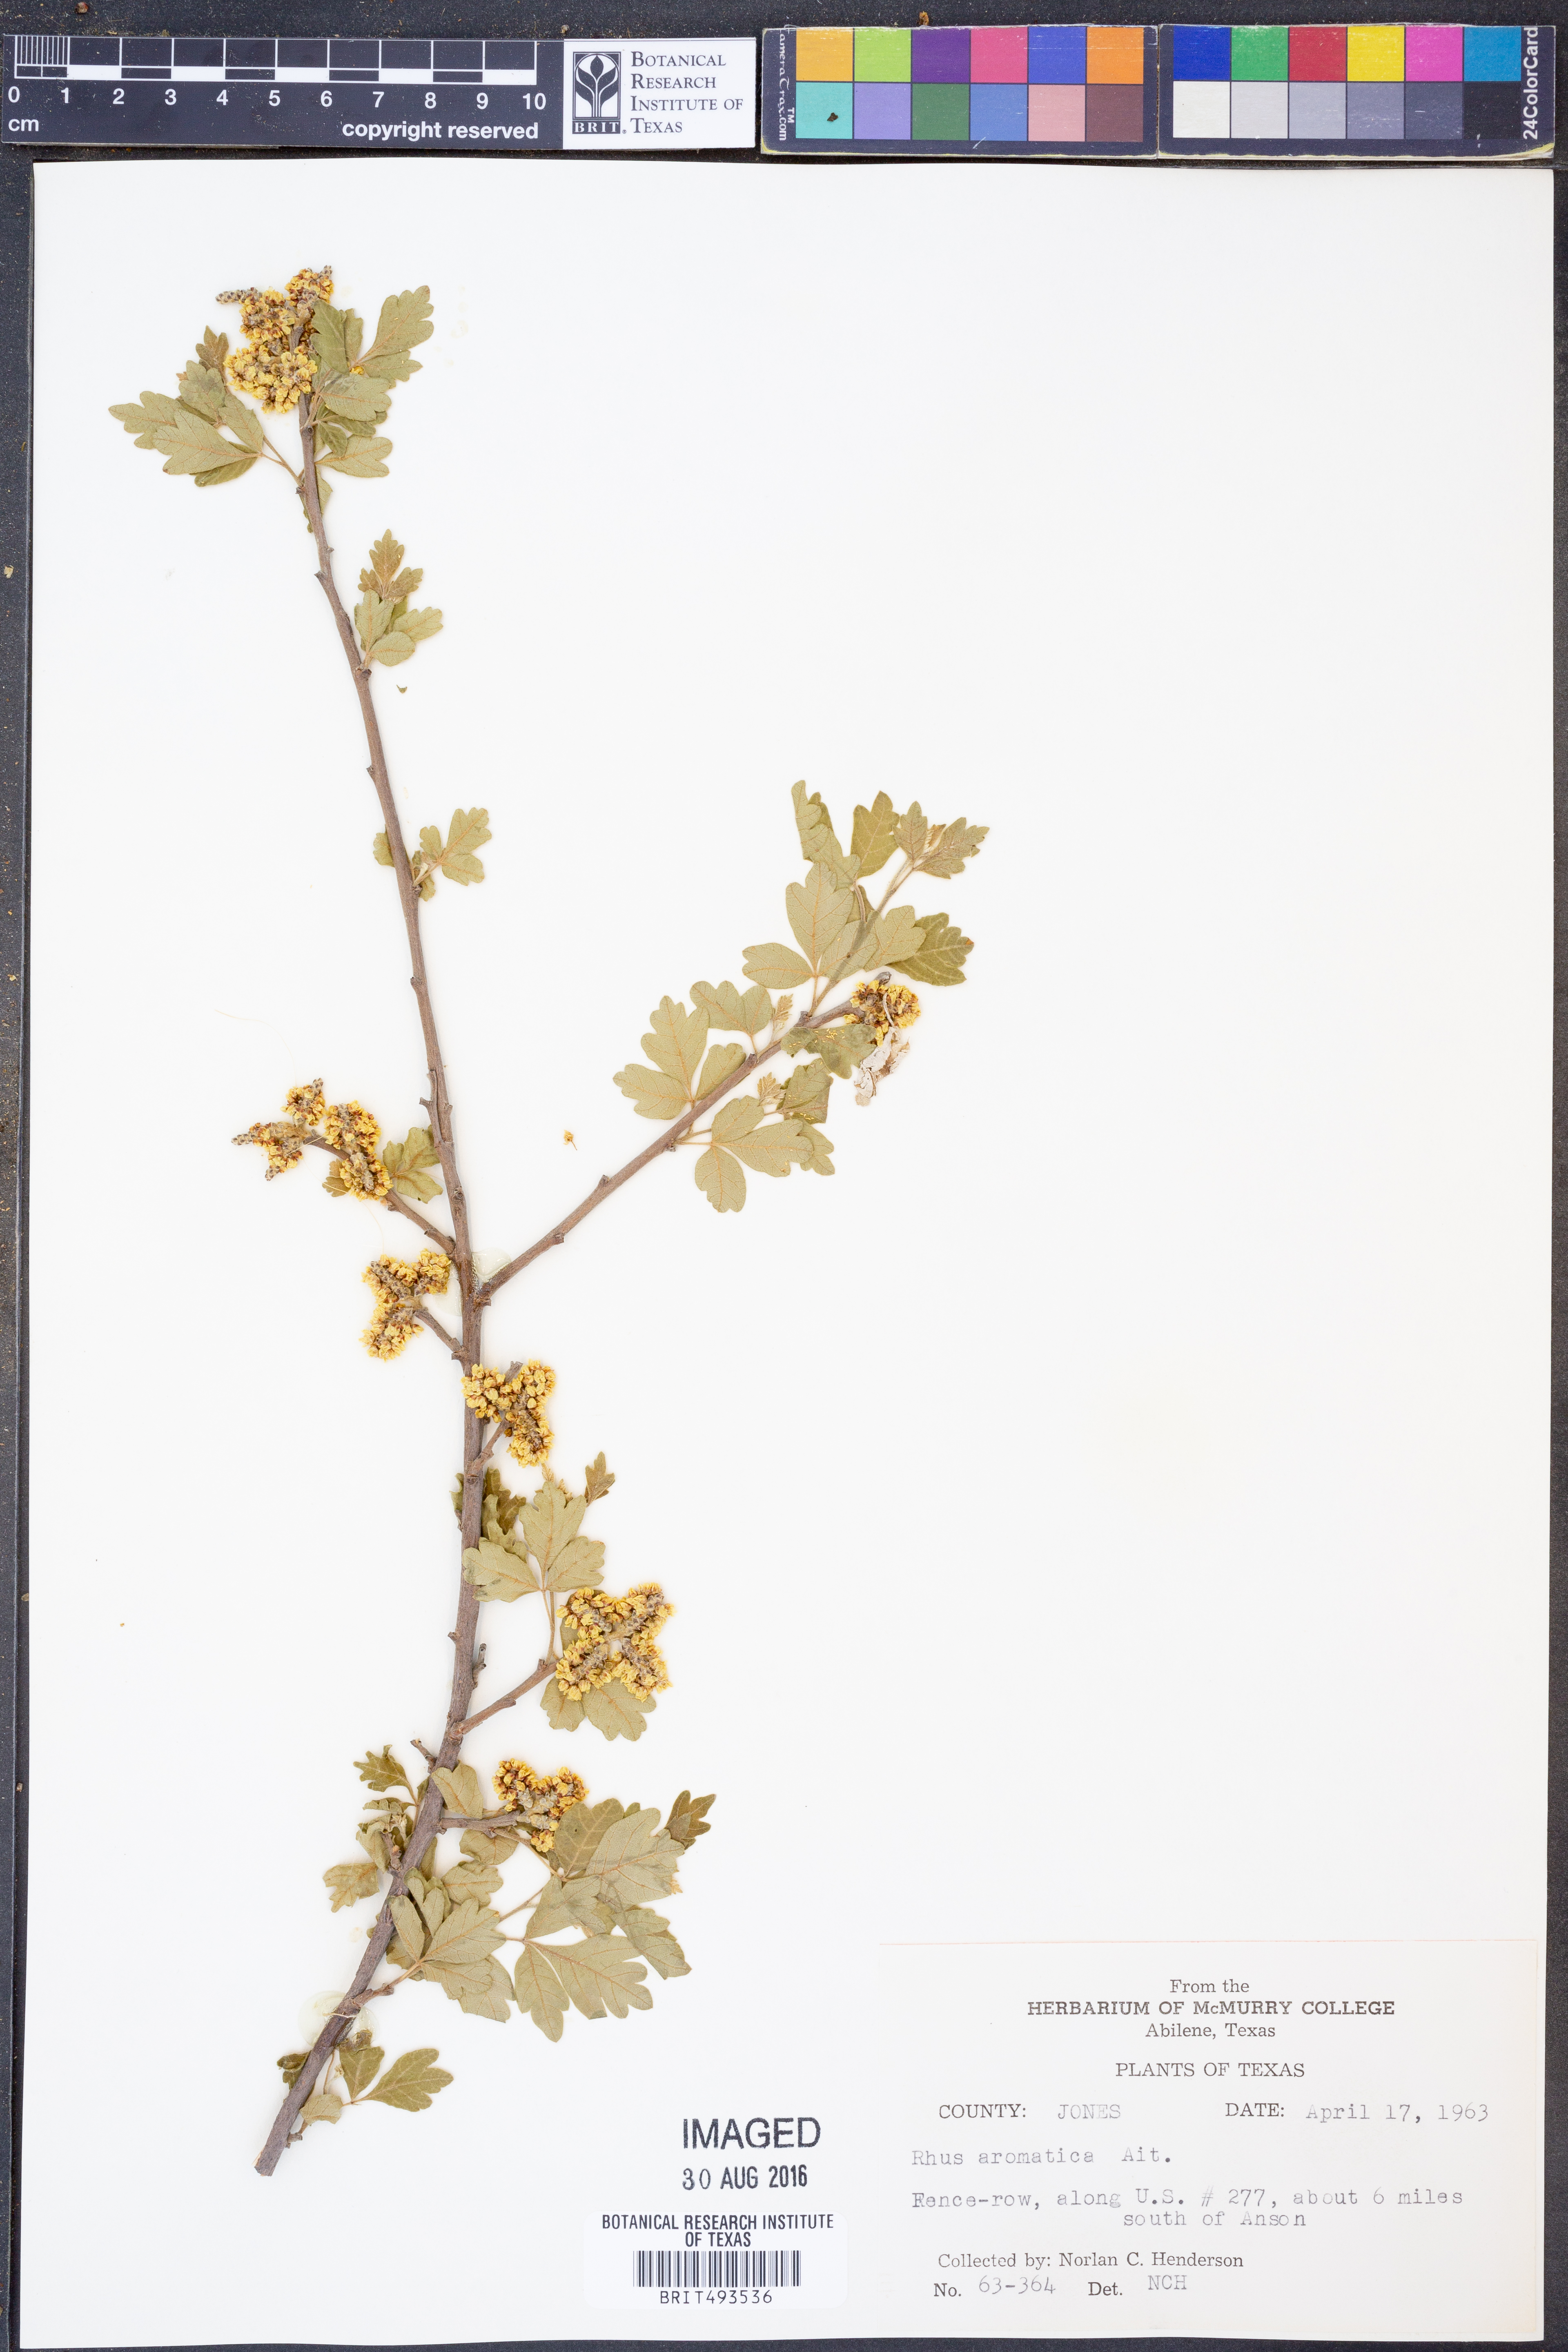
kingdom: Plantae
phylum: Tracheophyta
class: Magnoliopsida
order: Sapindales
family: Anacardiaceae
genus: Rhus
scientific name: Rhus aromatica
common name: Aromatic sumac
